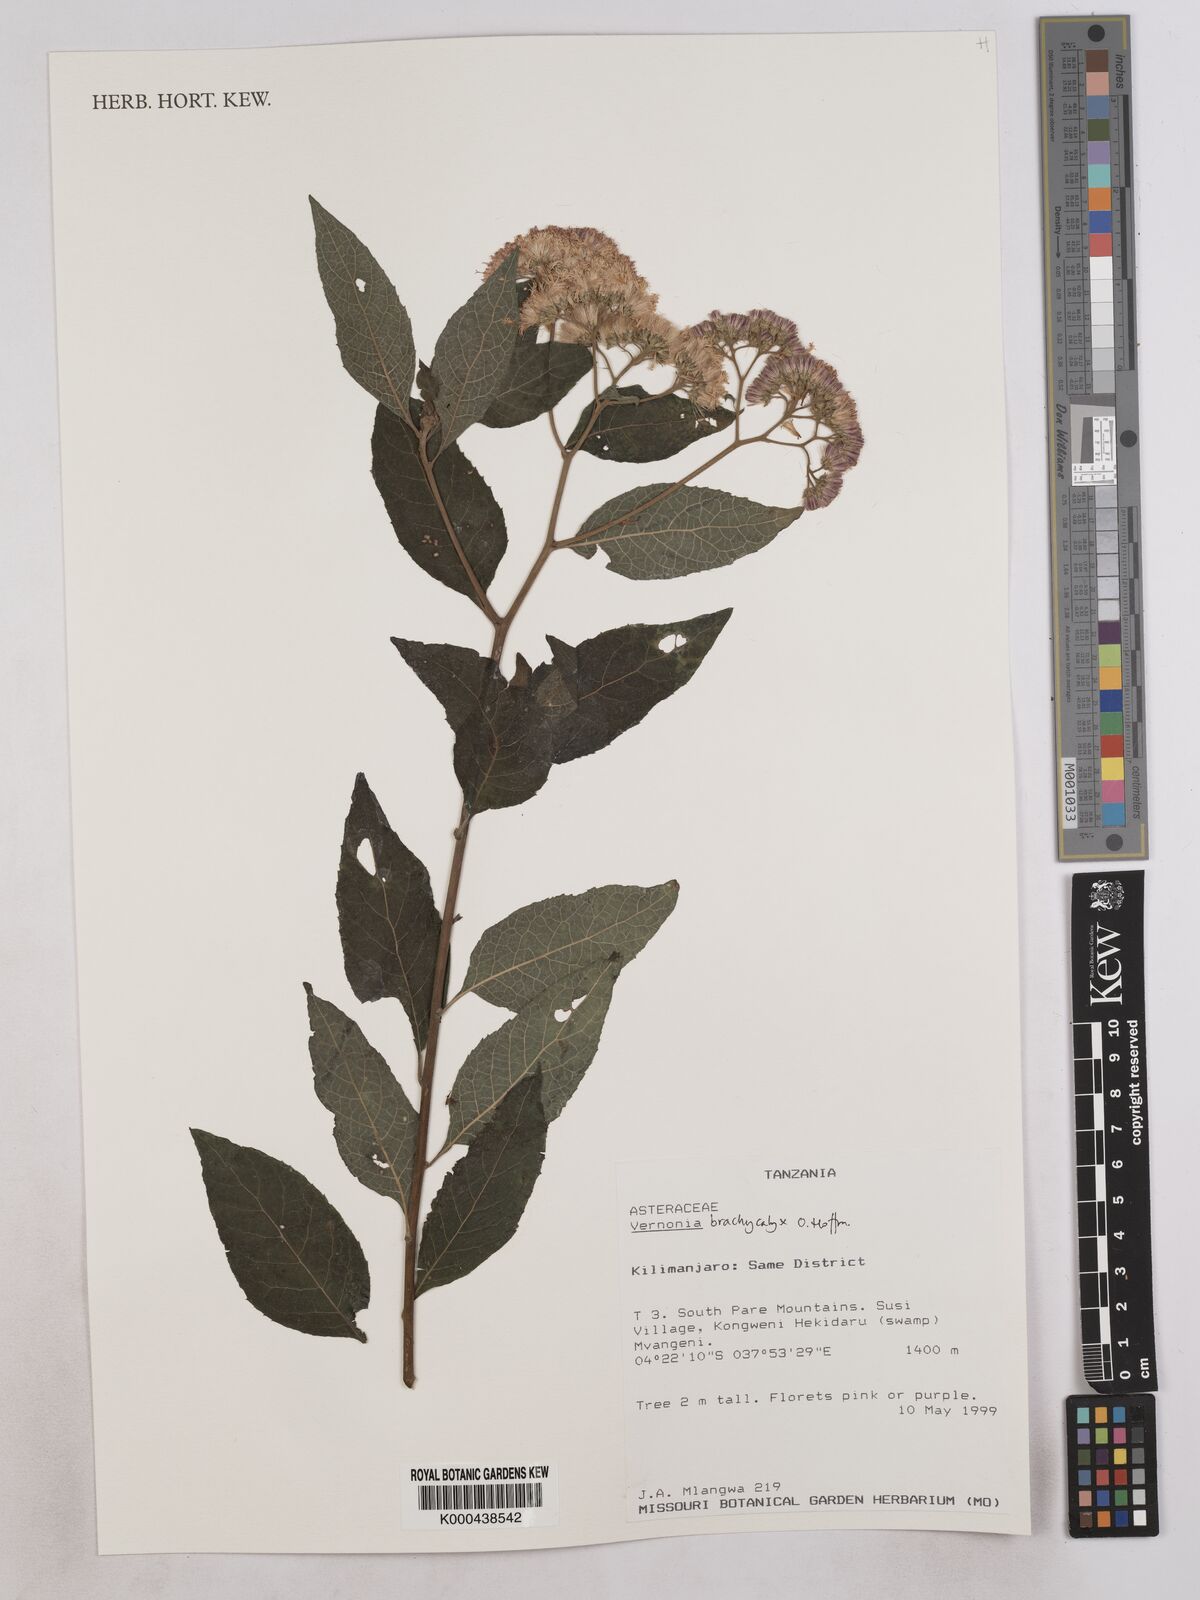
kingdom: Plantae
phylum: Tracheophyta
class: Magnoliopsida
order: Asterales
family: Asteraceae
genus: Hoffmannanthus
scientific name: Hoffmannanthus abbotianus
